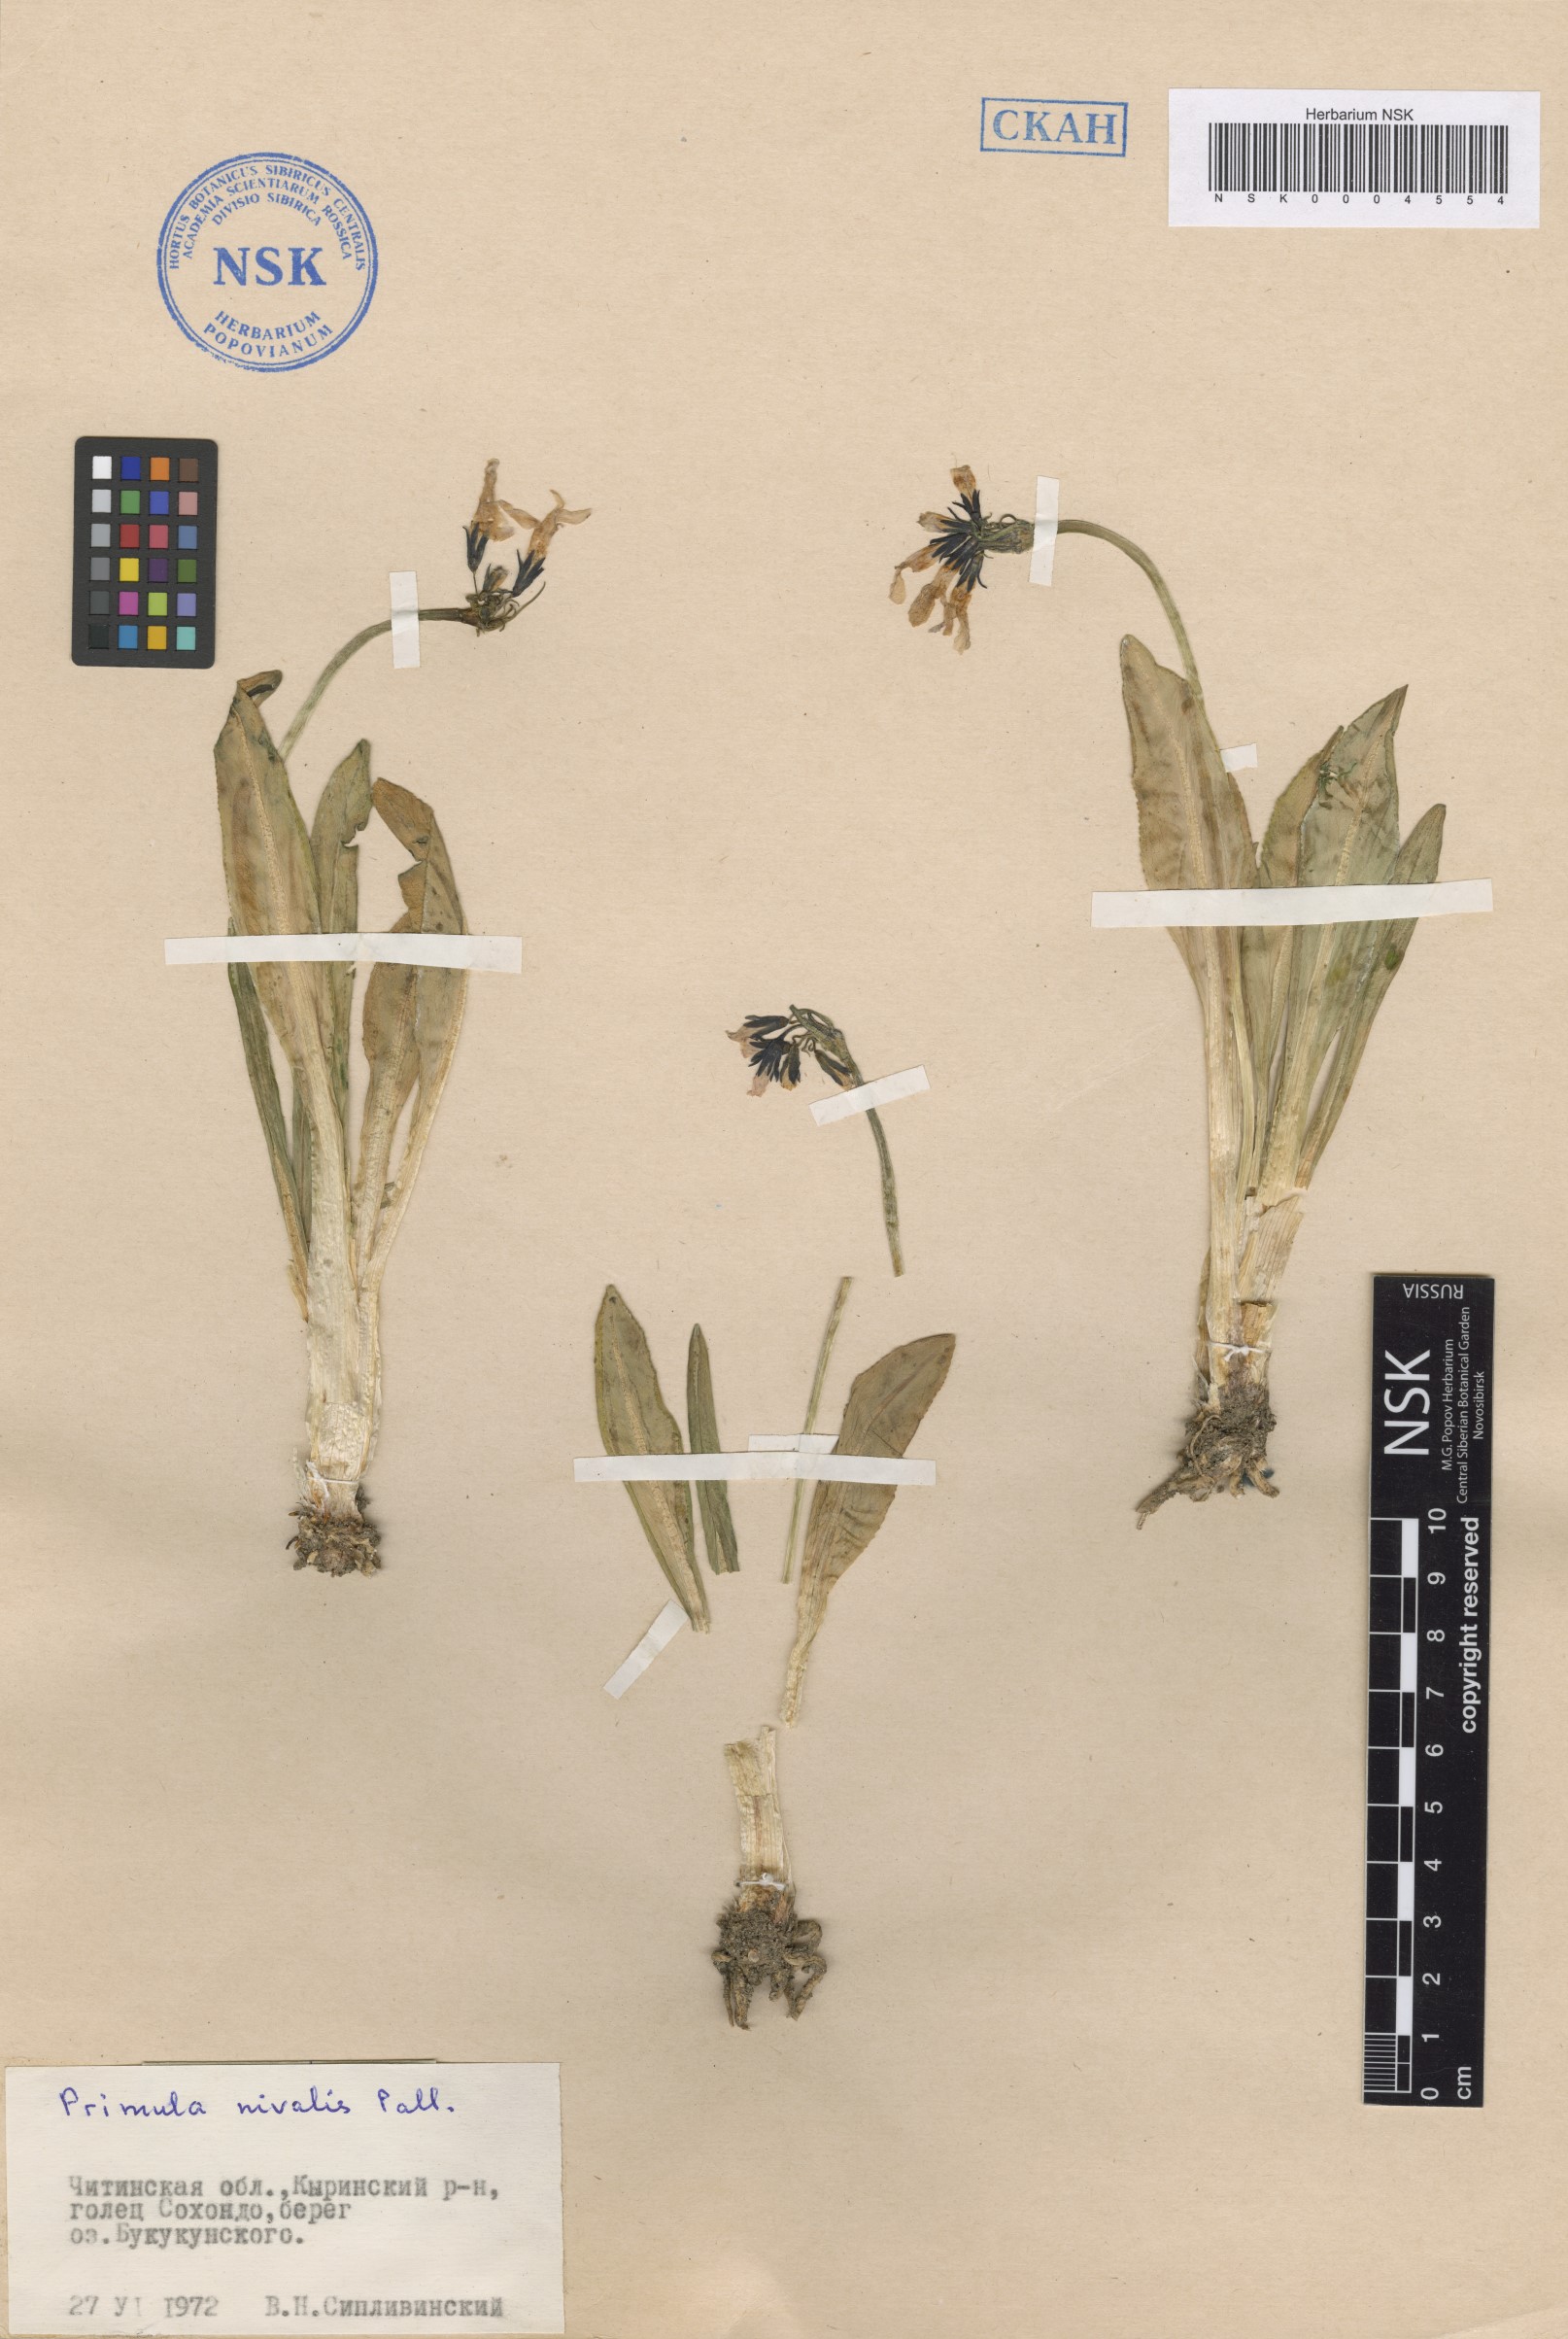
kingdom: Plantae
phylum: Tracheophyta
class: Magnoliopsida
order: Ericales
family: Primulaceae
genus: Primula
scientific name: Primula nivalis
